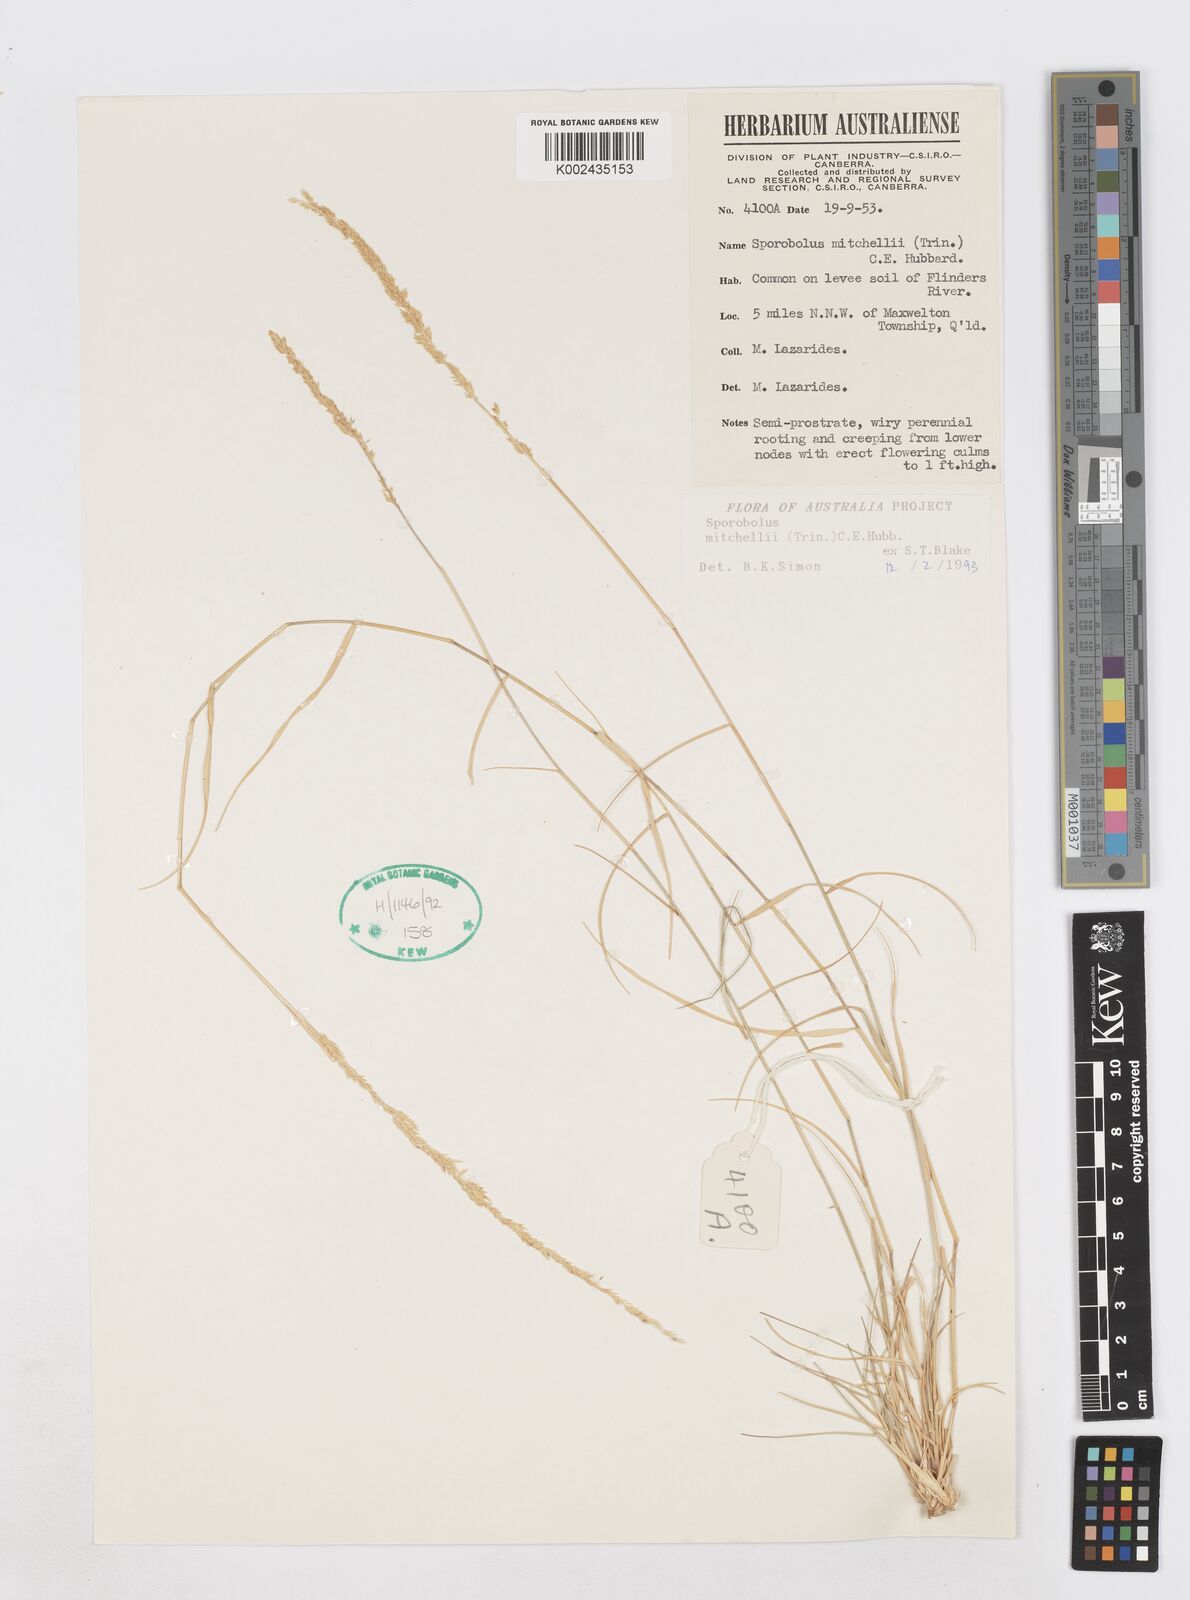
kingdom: Plantae
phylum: Tracheophyta
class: Liliopsida
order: Poales
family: Poaceae
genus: Sporobolus
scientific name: Sporobolus mitchellii
